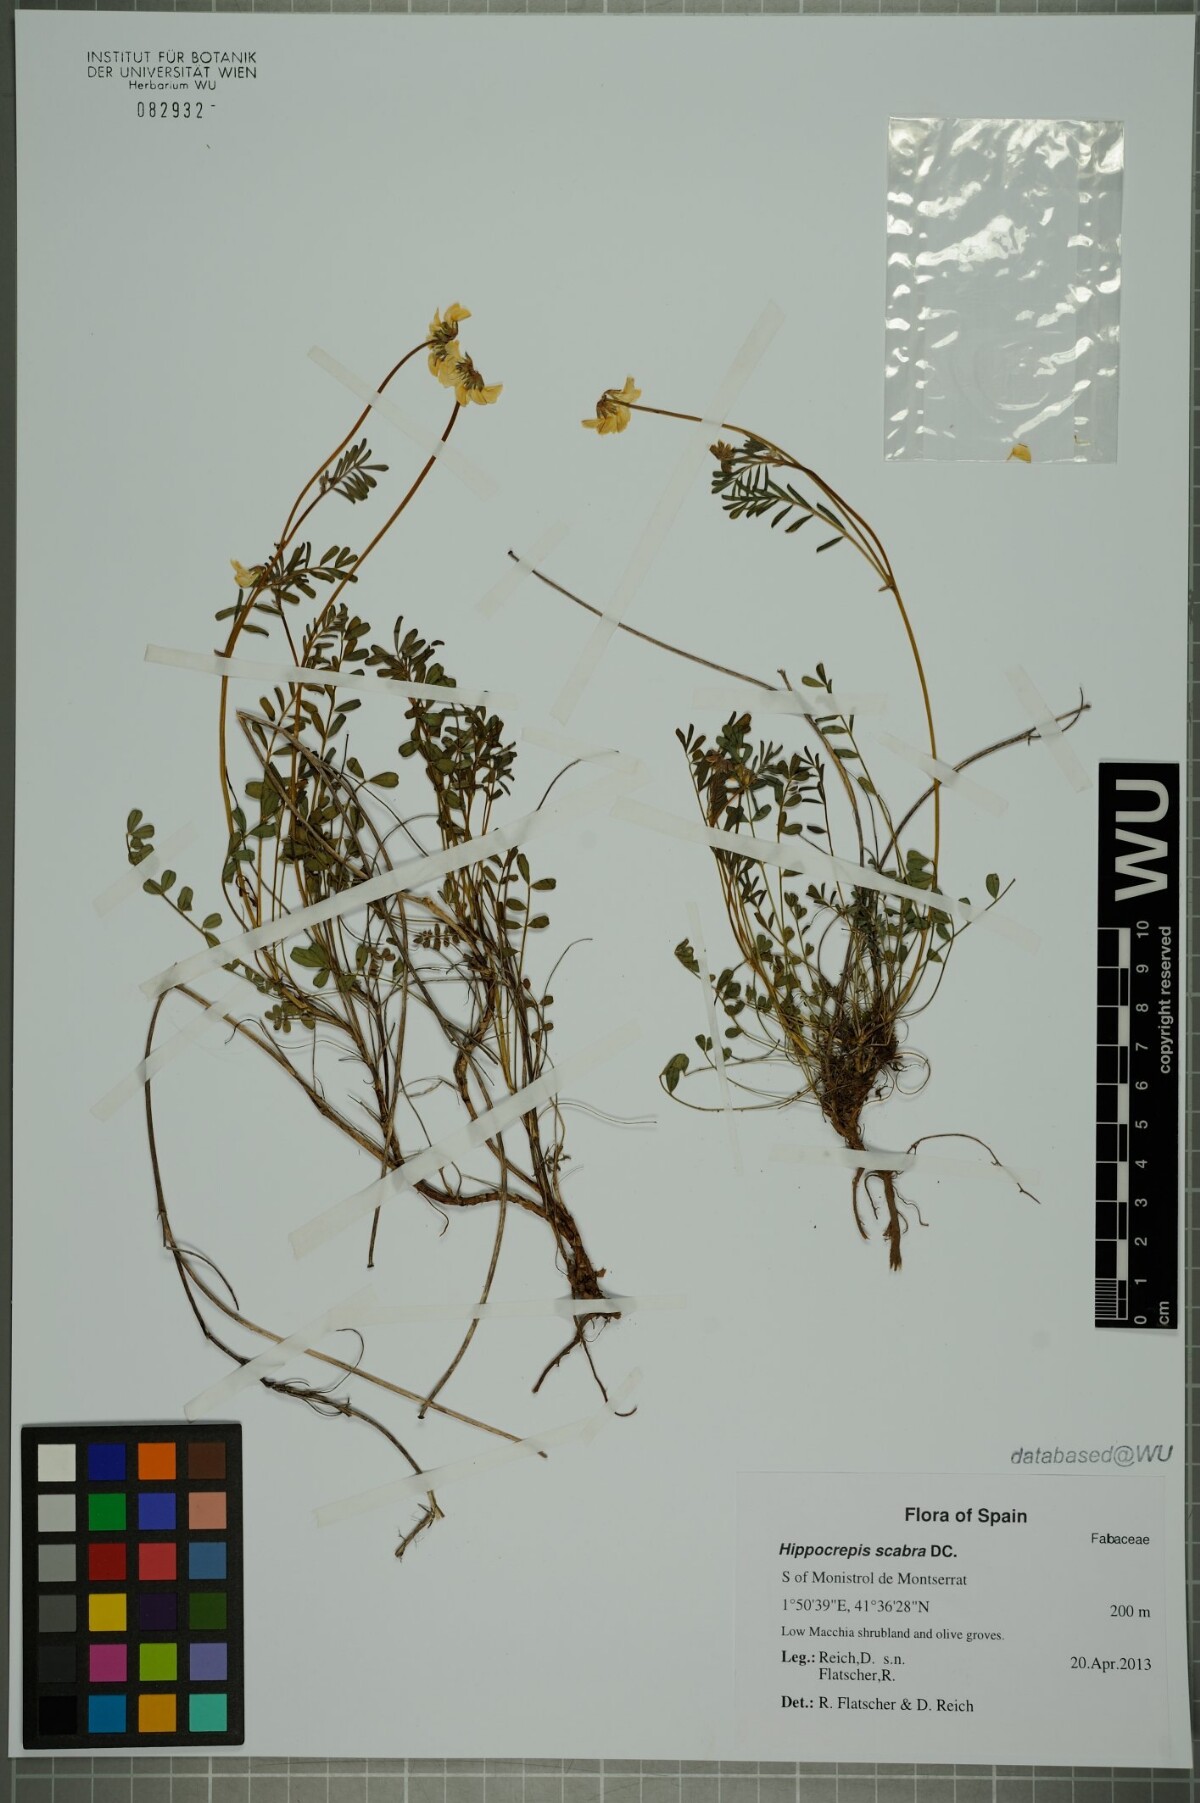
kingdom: Plantae
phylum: Tracheophyta
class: Magnoliopsida
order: Fabales
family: Fabaceae
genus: Hippocrepis
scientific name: Hippocrepis scabra
